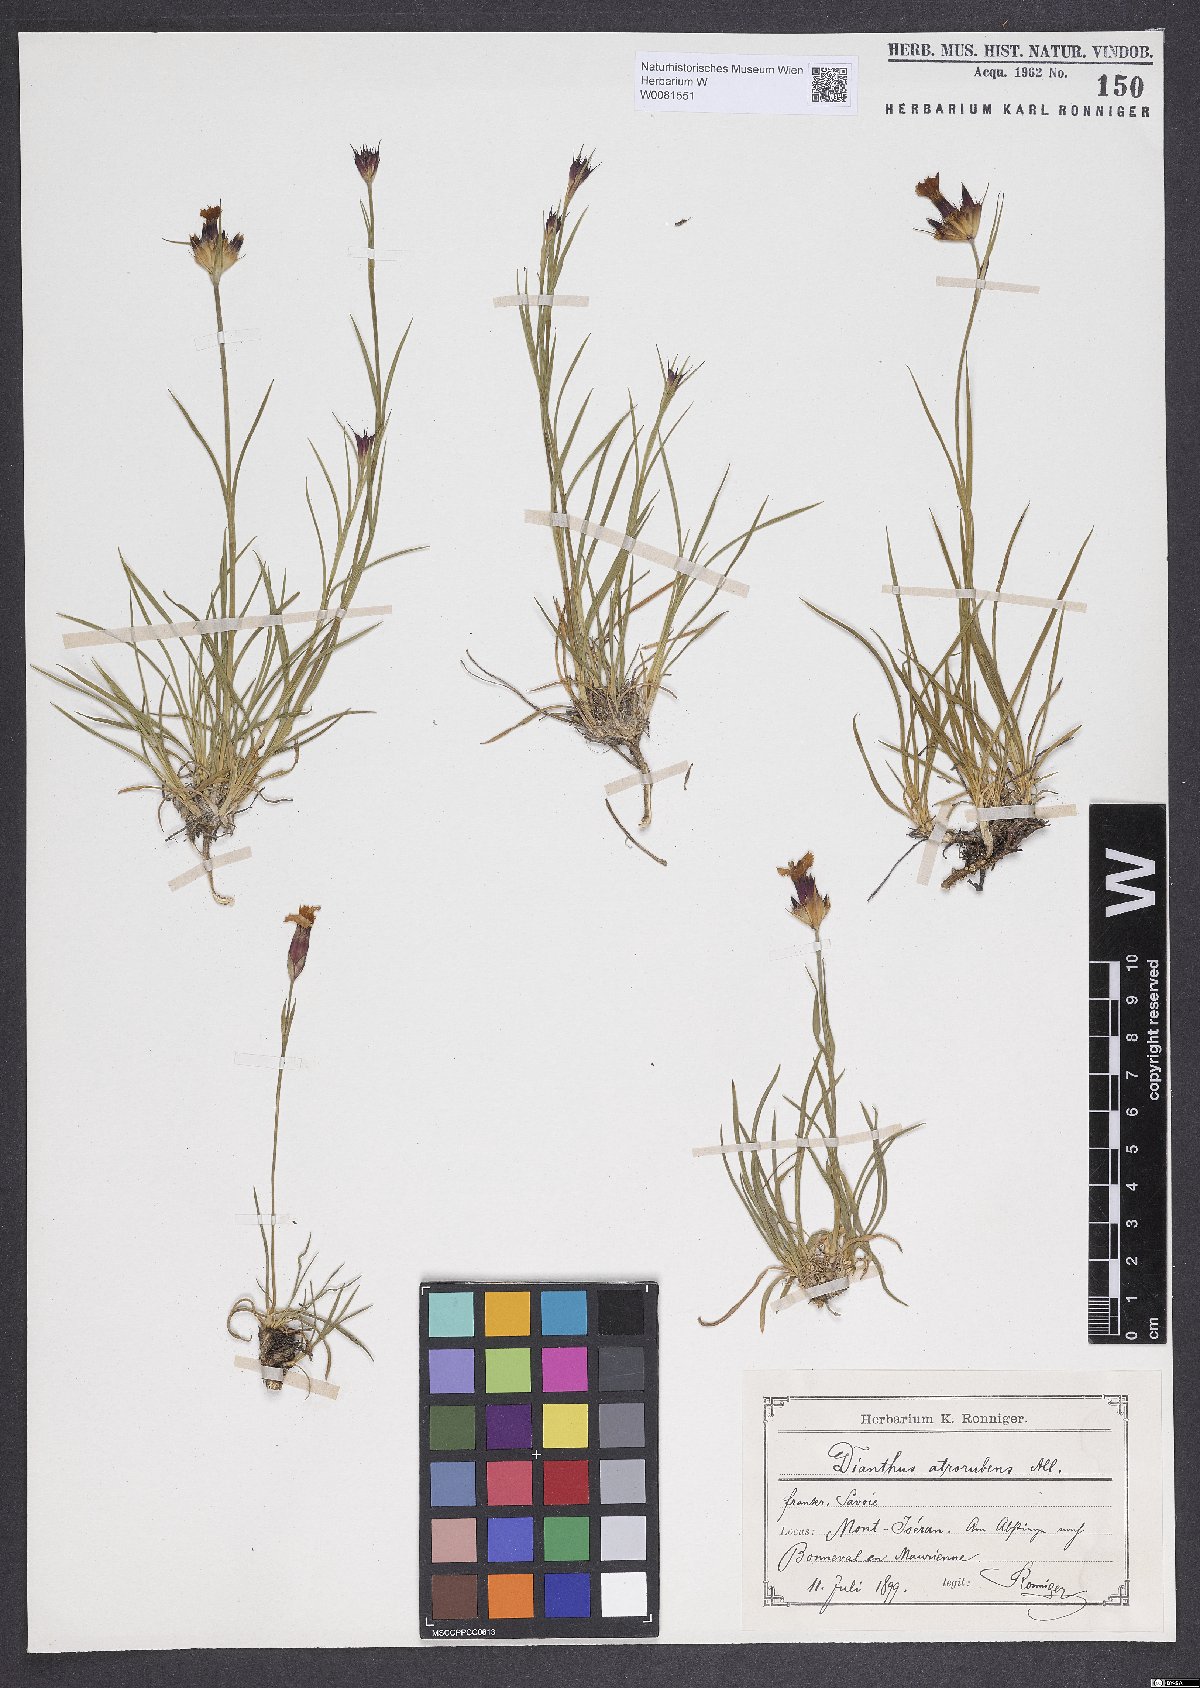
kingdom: Plantae
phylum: Tracheophyta
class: Magnoliopsida
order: Caryophyllales
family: Caryophyllaceae
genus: Dianthus
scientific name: Dianthus carthusianorum
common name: Carthusian pink
